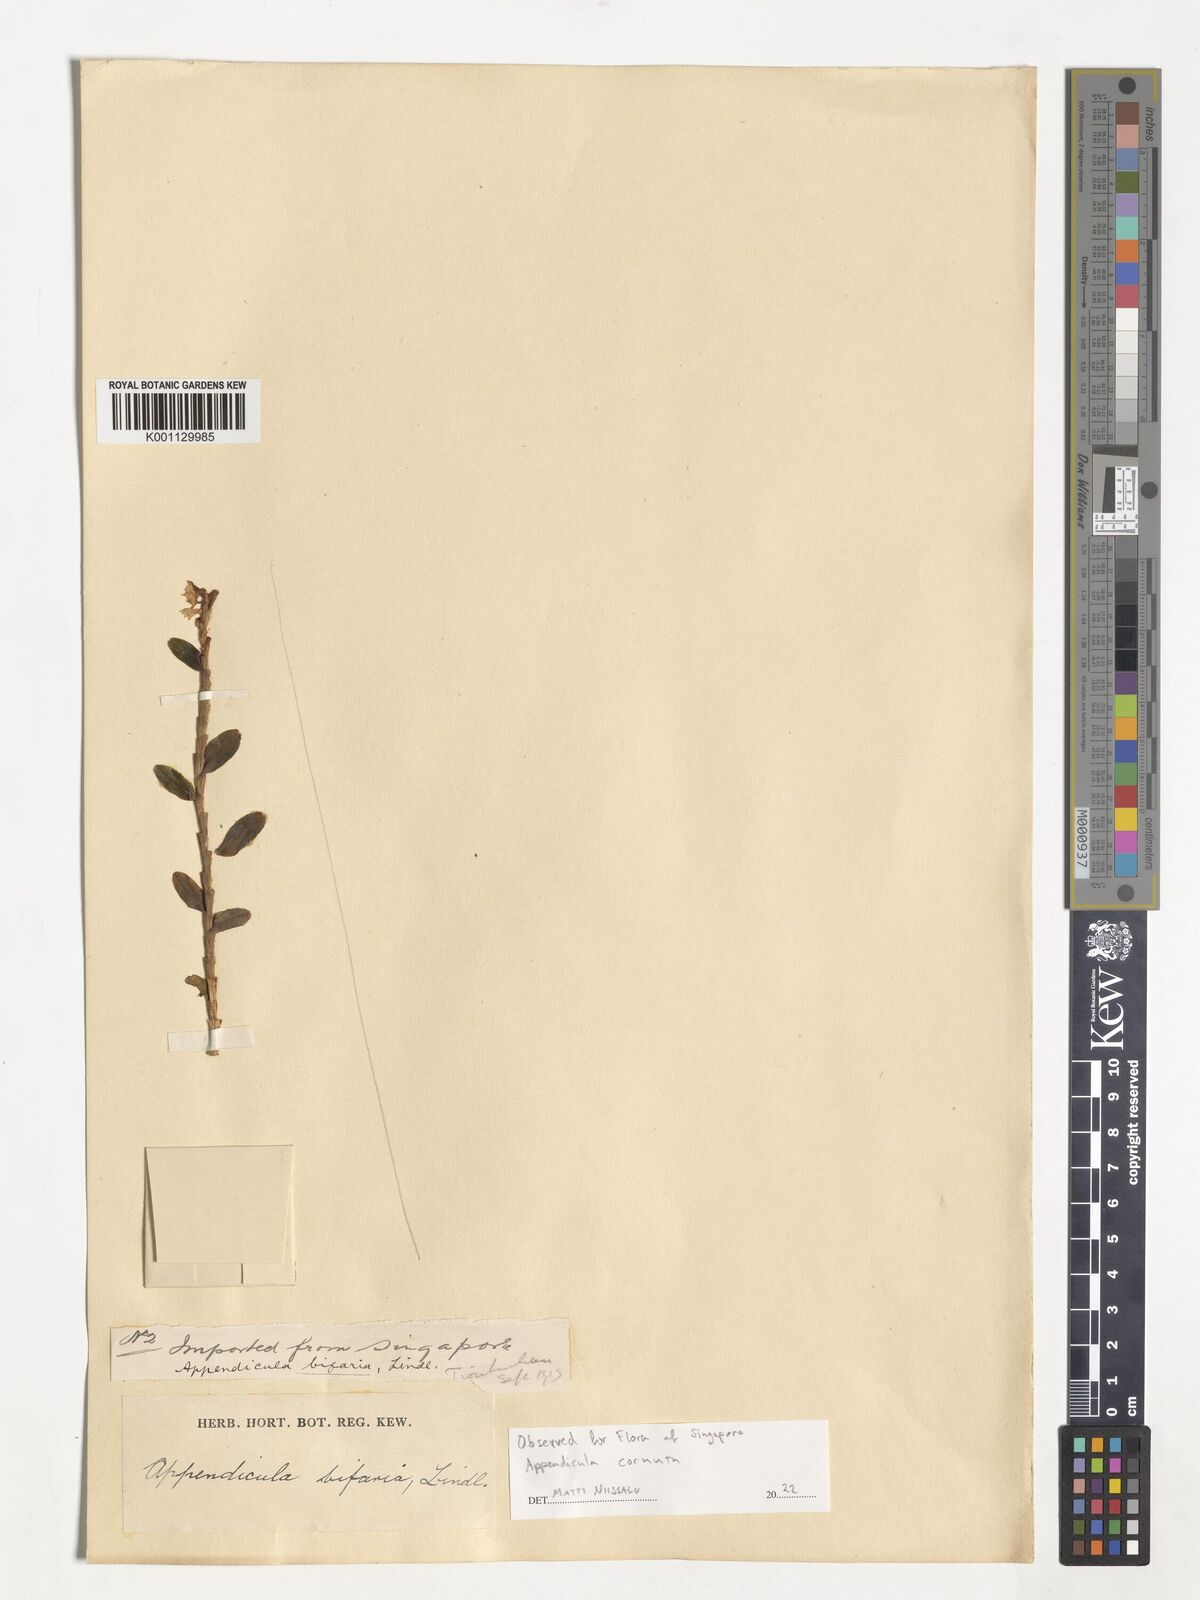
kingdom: Plantae
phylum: Tracheophyta
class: Liliopsida
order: Asparagales
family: Orchidaceae
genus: Appendicula
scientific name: Appendicula cornuta
